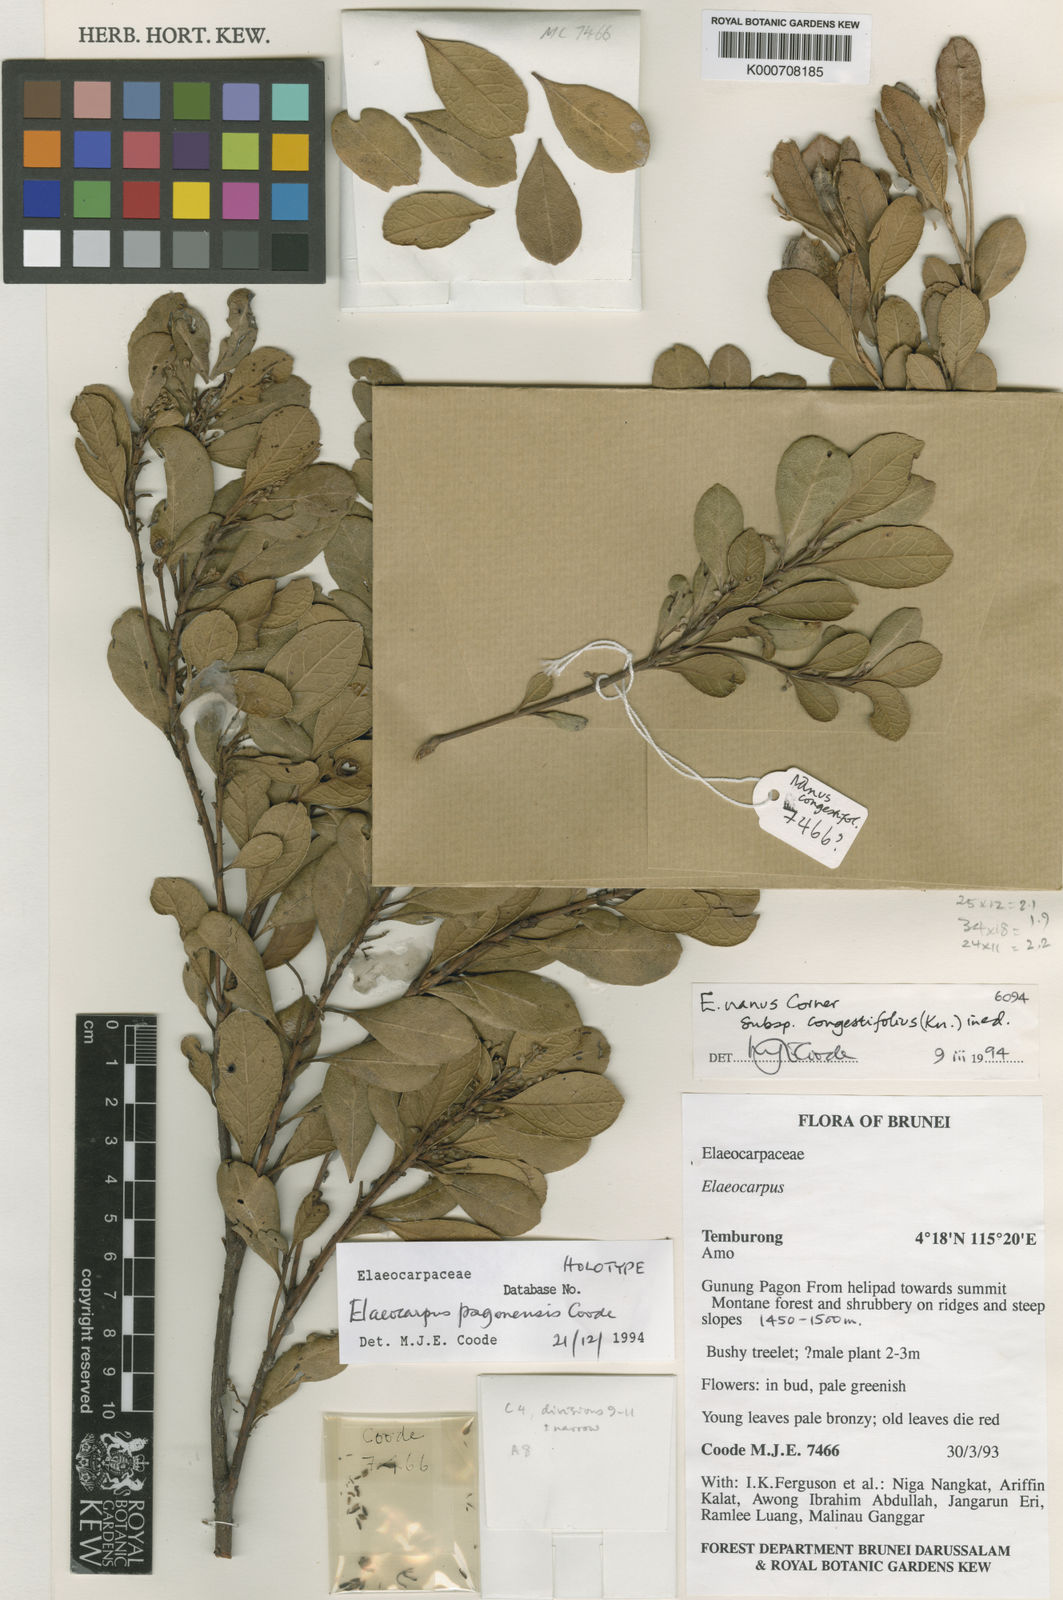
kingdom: Plantae
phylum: Tracheophyta
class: Magnoliopsida
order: Oxalidales
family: Elaeocarpaceae
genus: Elaeocarpus
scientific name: Elaeocarpus pagonensis
